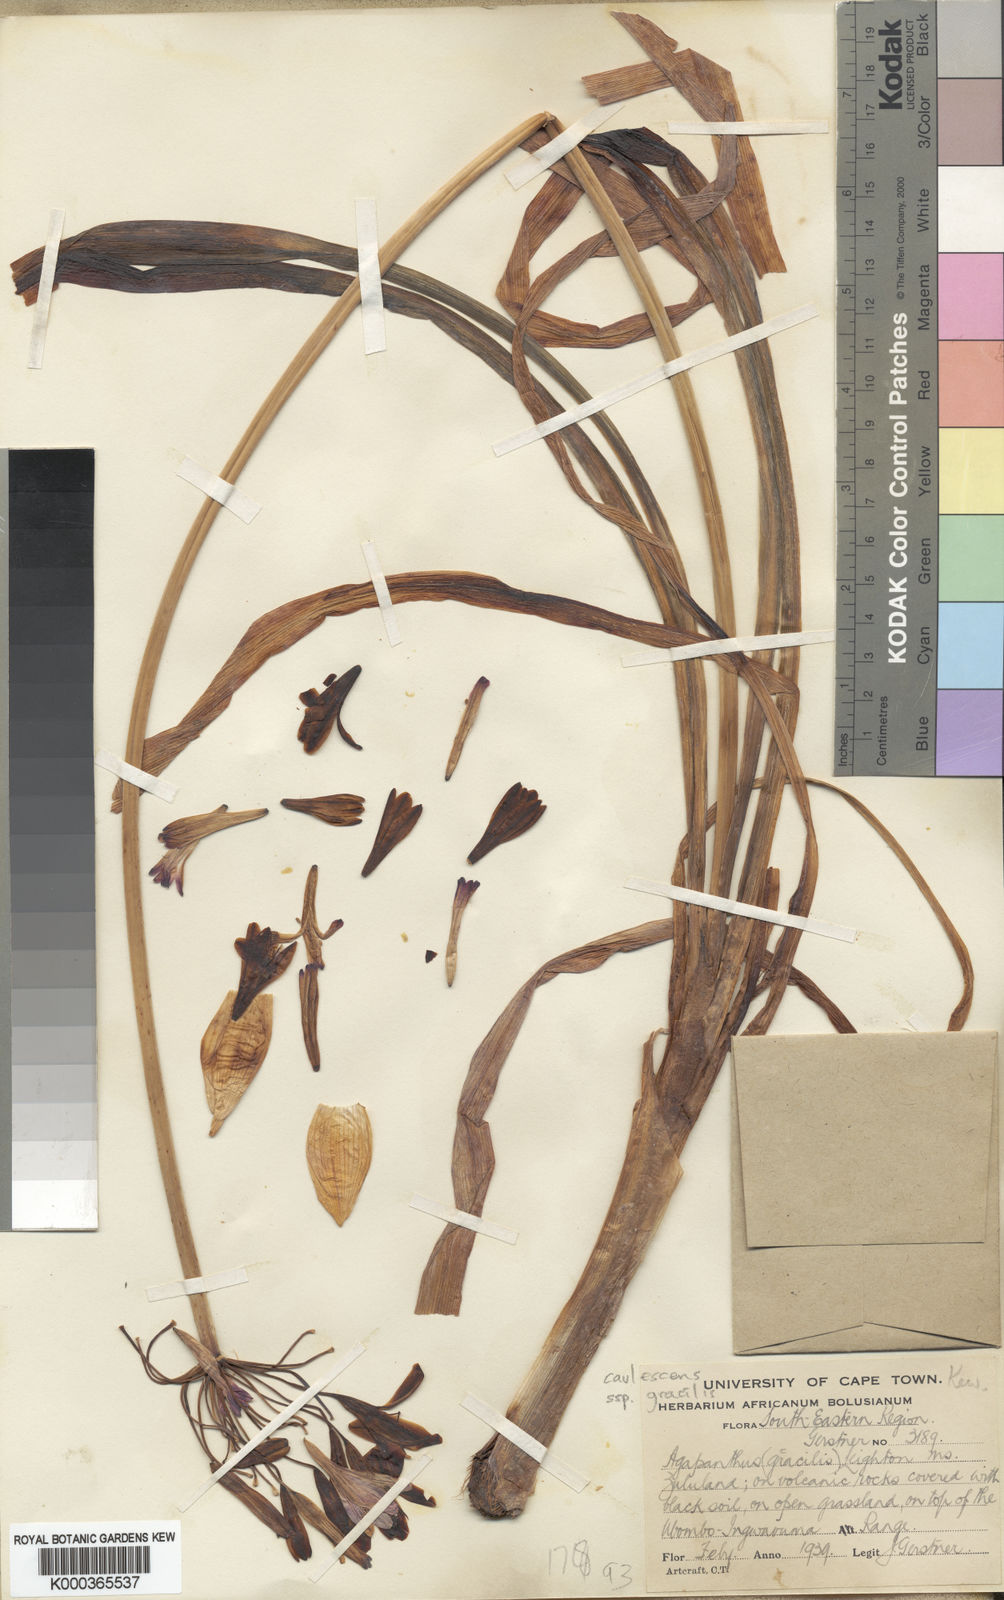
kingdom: Plantae
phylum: Tracheophyta
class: Liliopsida
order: Asparagales
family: Amaryllidaceae
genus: Agapanthus
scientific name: Agapanthus caulescens
